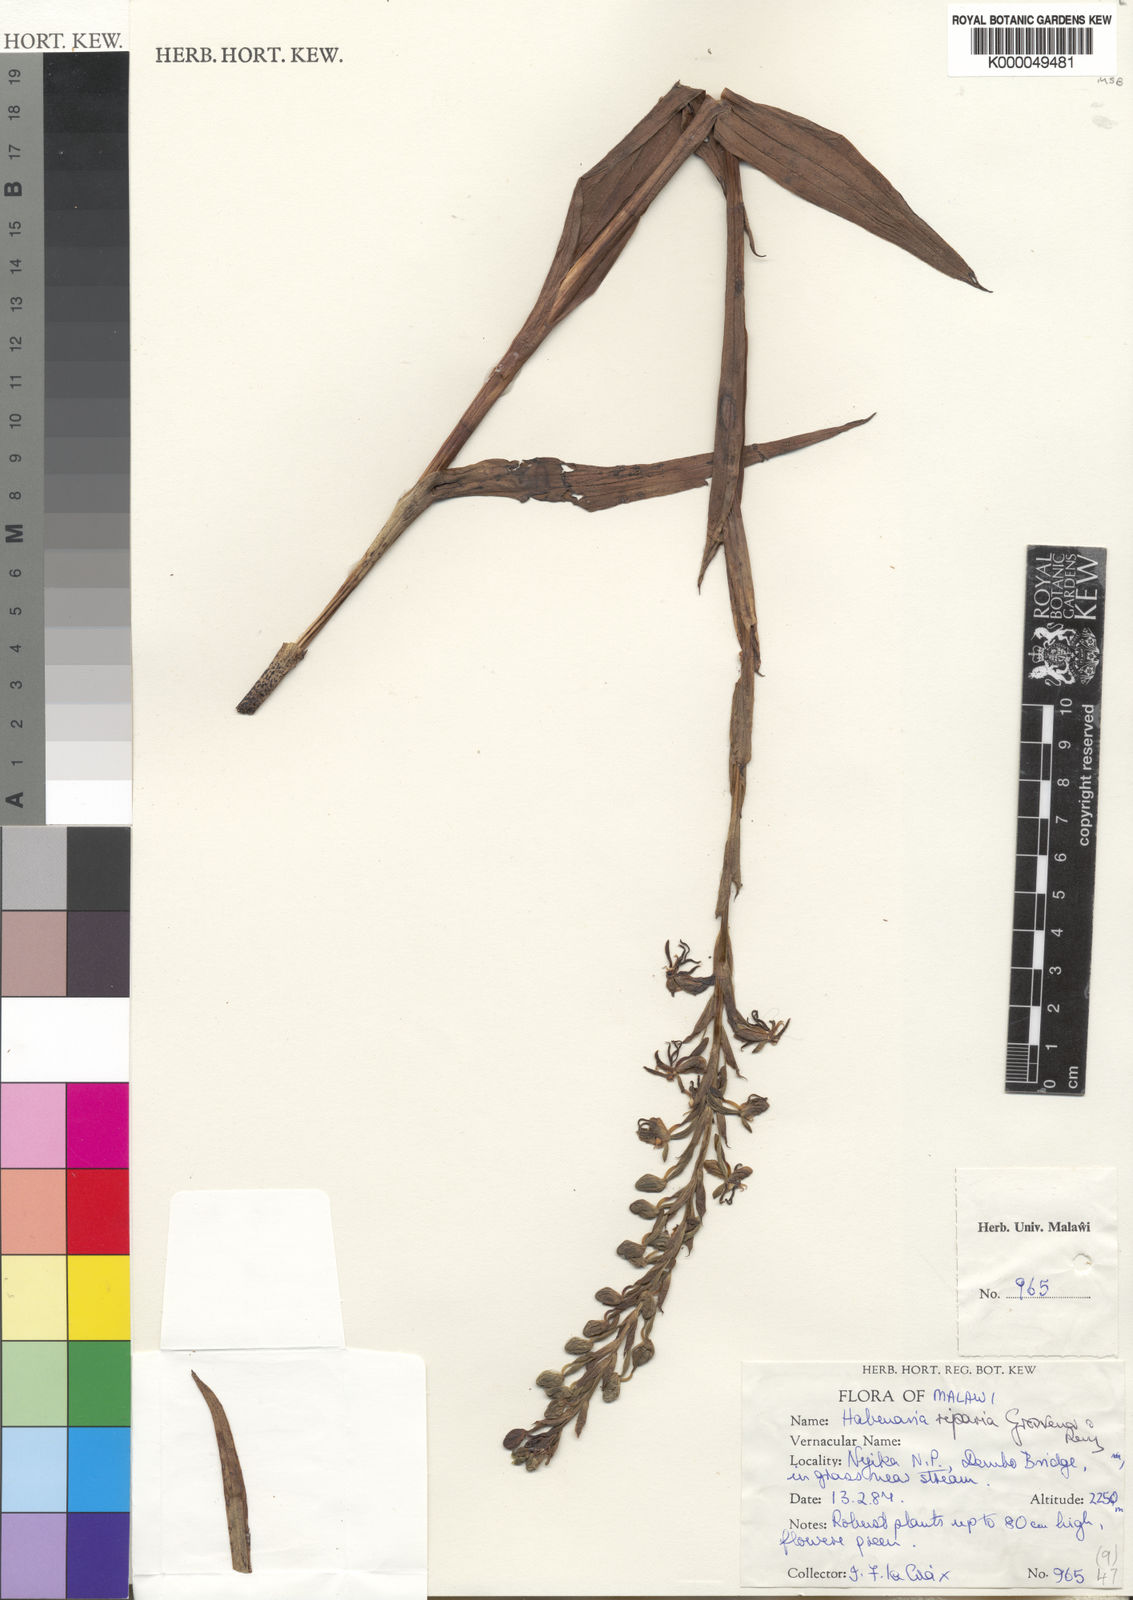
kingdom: Plantae
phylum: Tracheophyta
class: Liliopsida
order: Asparagales
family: Orchidaceae
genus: Habenaria
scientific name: Habenaria riparia
